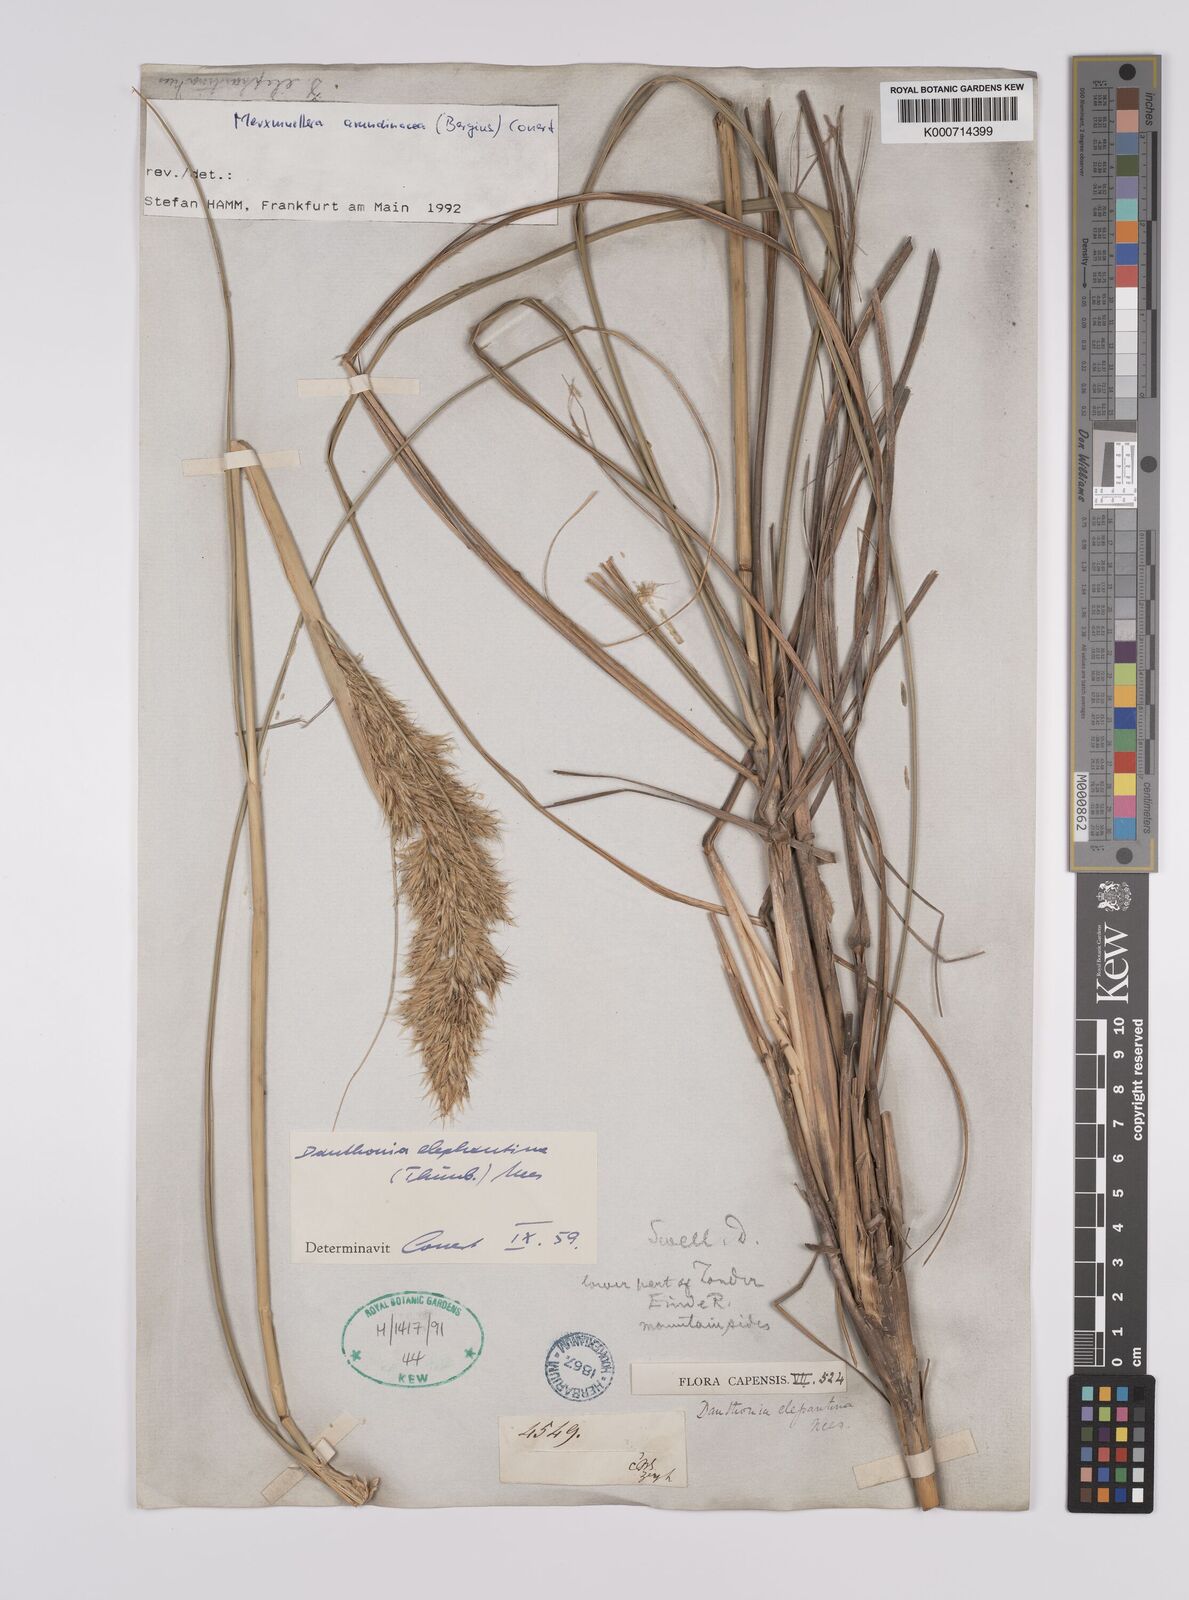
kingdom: Plantae
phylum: Tracheophyta
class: Liliopsida
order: Poales
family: Poaceae
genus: Rytidosperma
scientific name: Rytidosperma
